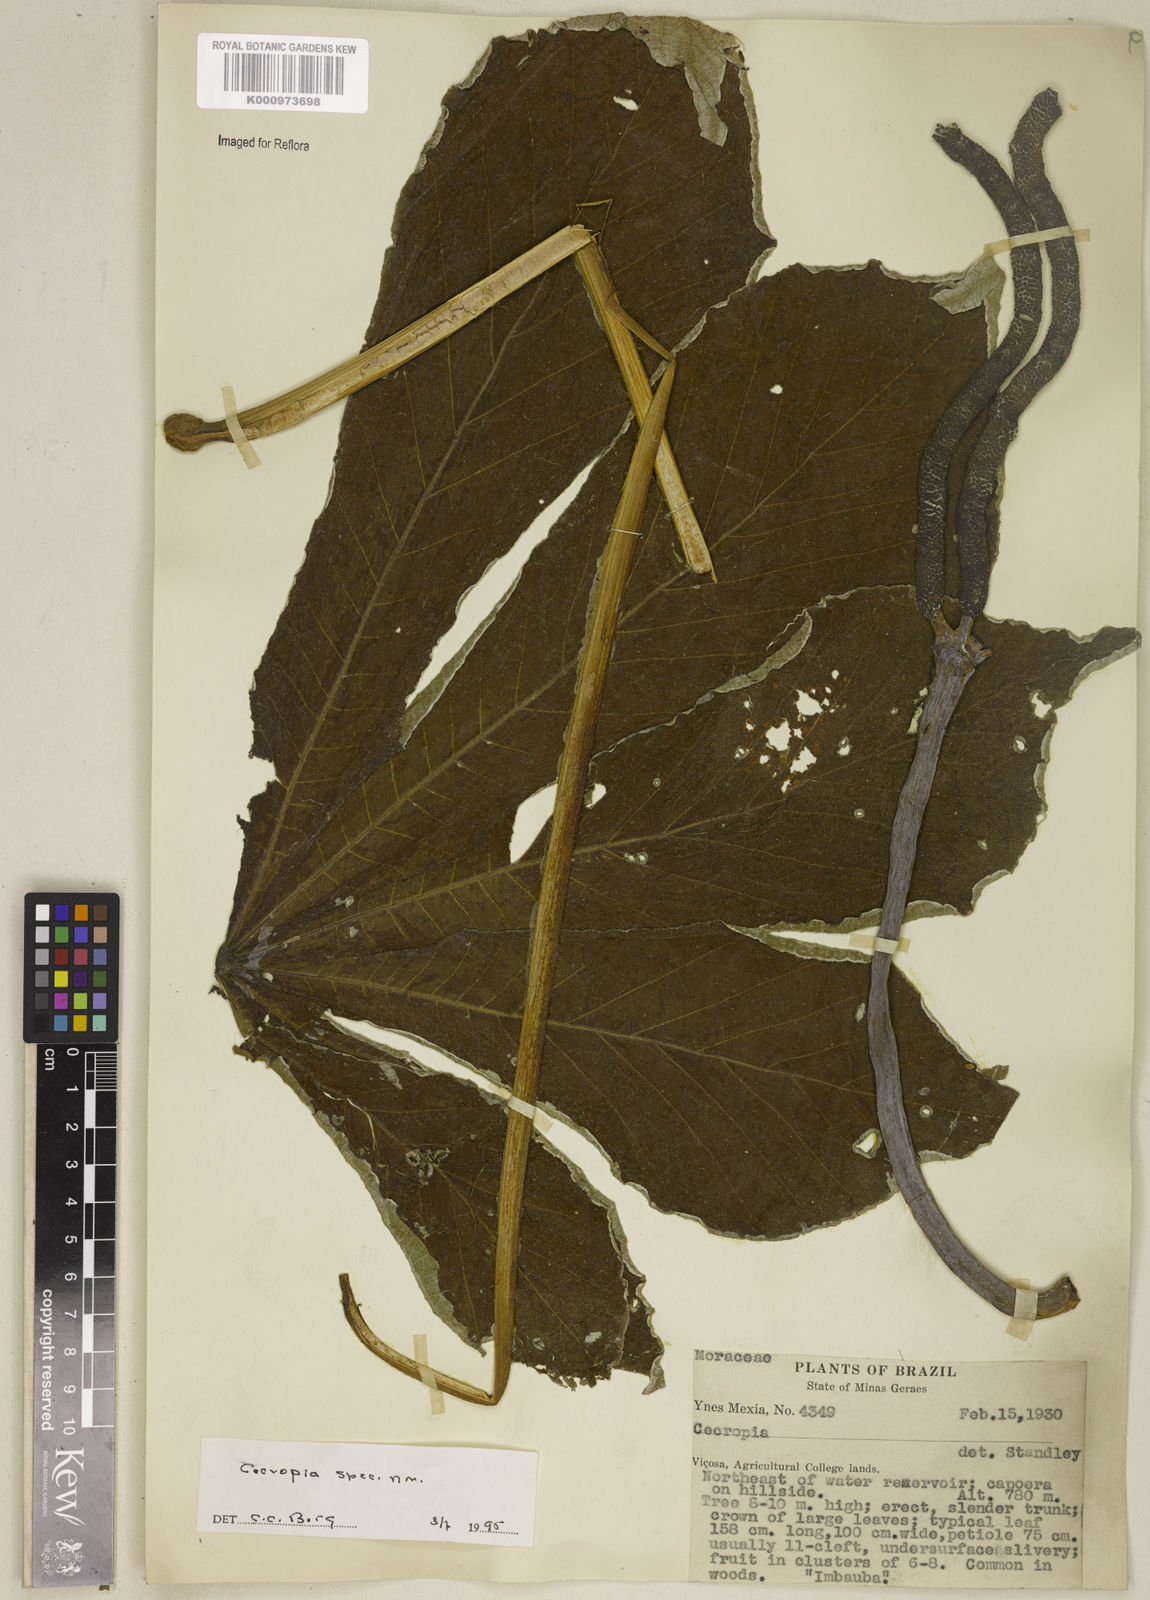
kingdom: Plantae
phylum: Tracheophyta
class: Magnoliopsida
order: Rosales
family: Urticaceae
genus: Cecropia
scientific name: Cecropia
